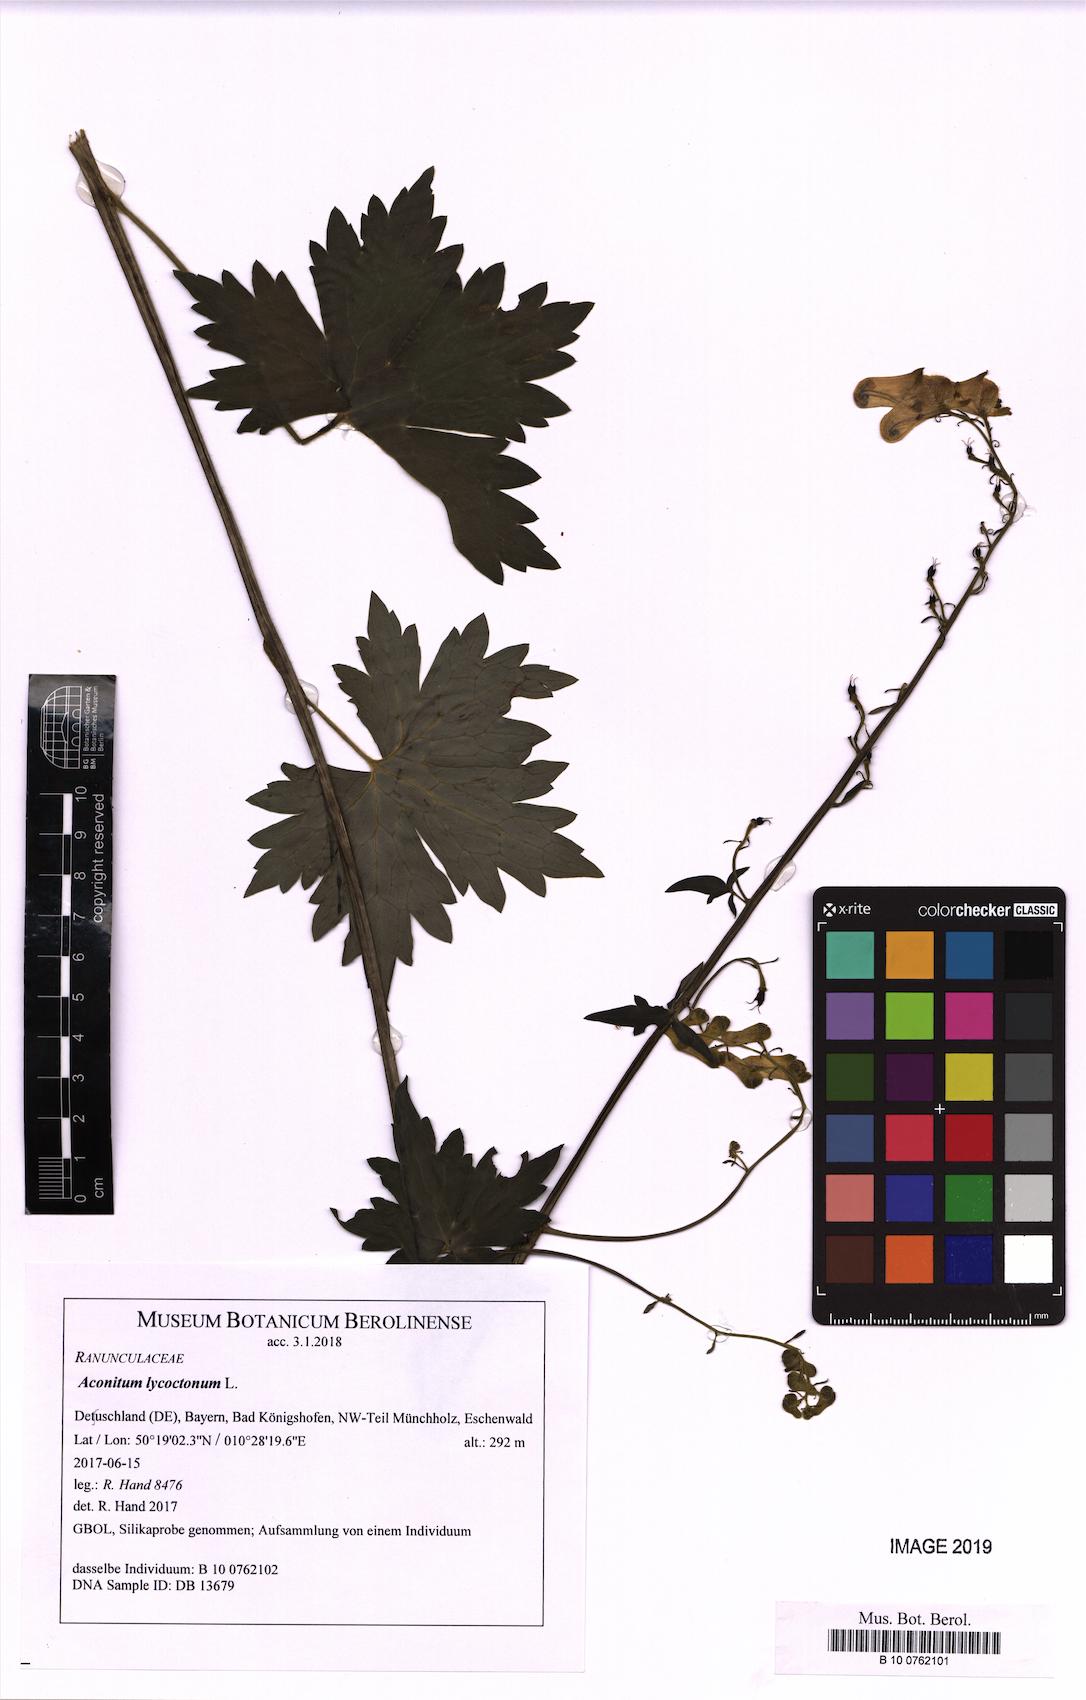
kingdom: Plantae
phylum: Tracheophyta
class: Magnoliopsida
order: Ranunculales
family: Ranunculaceae
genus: Aconitum
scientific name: Aconitum lycoctonum
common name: Wolf's-bane
